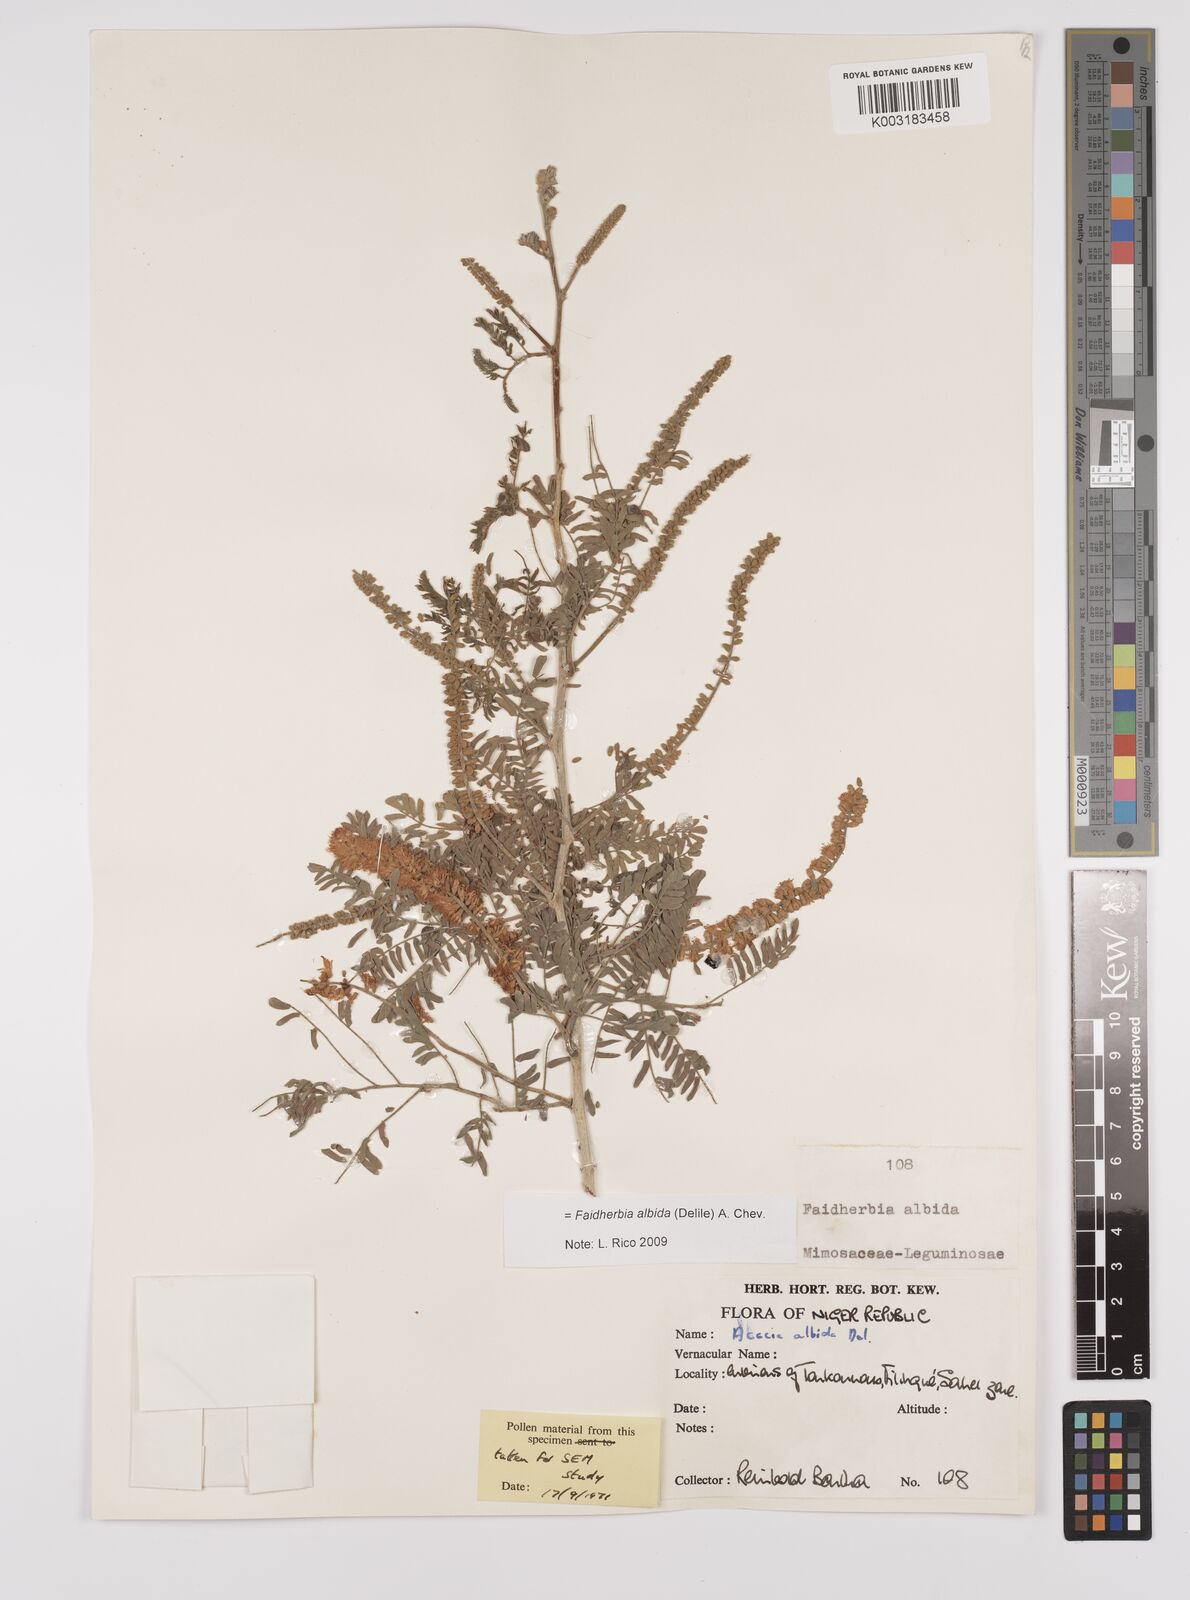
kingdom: Plantae
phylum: Tracheophyta
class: Magnoliopsida
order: Fabales
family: Fabaceae
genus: Faidherbia
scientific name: Faidherbia albida
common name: Anatree
